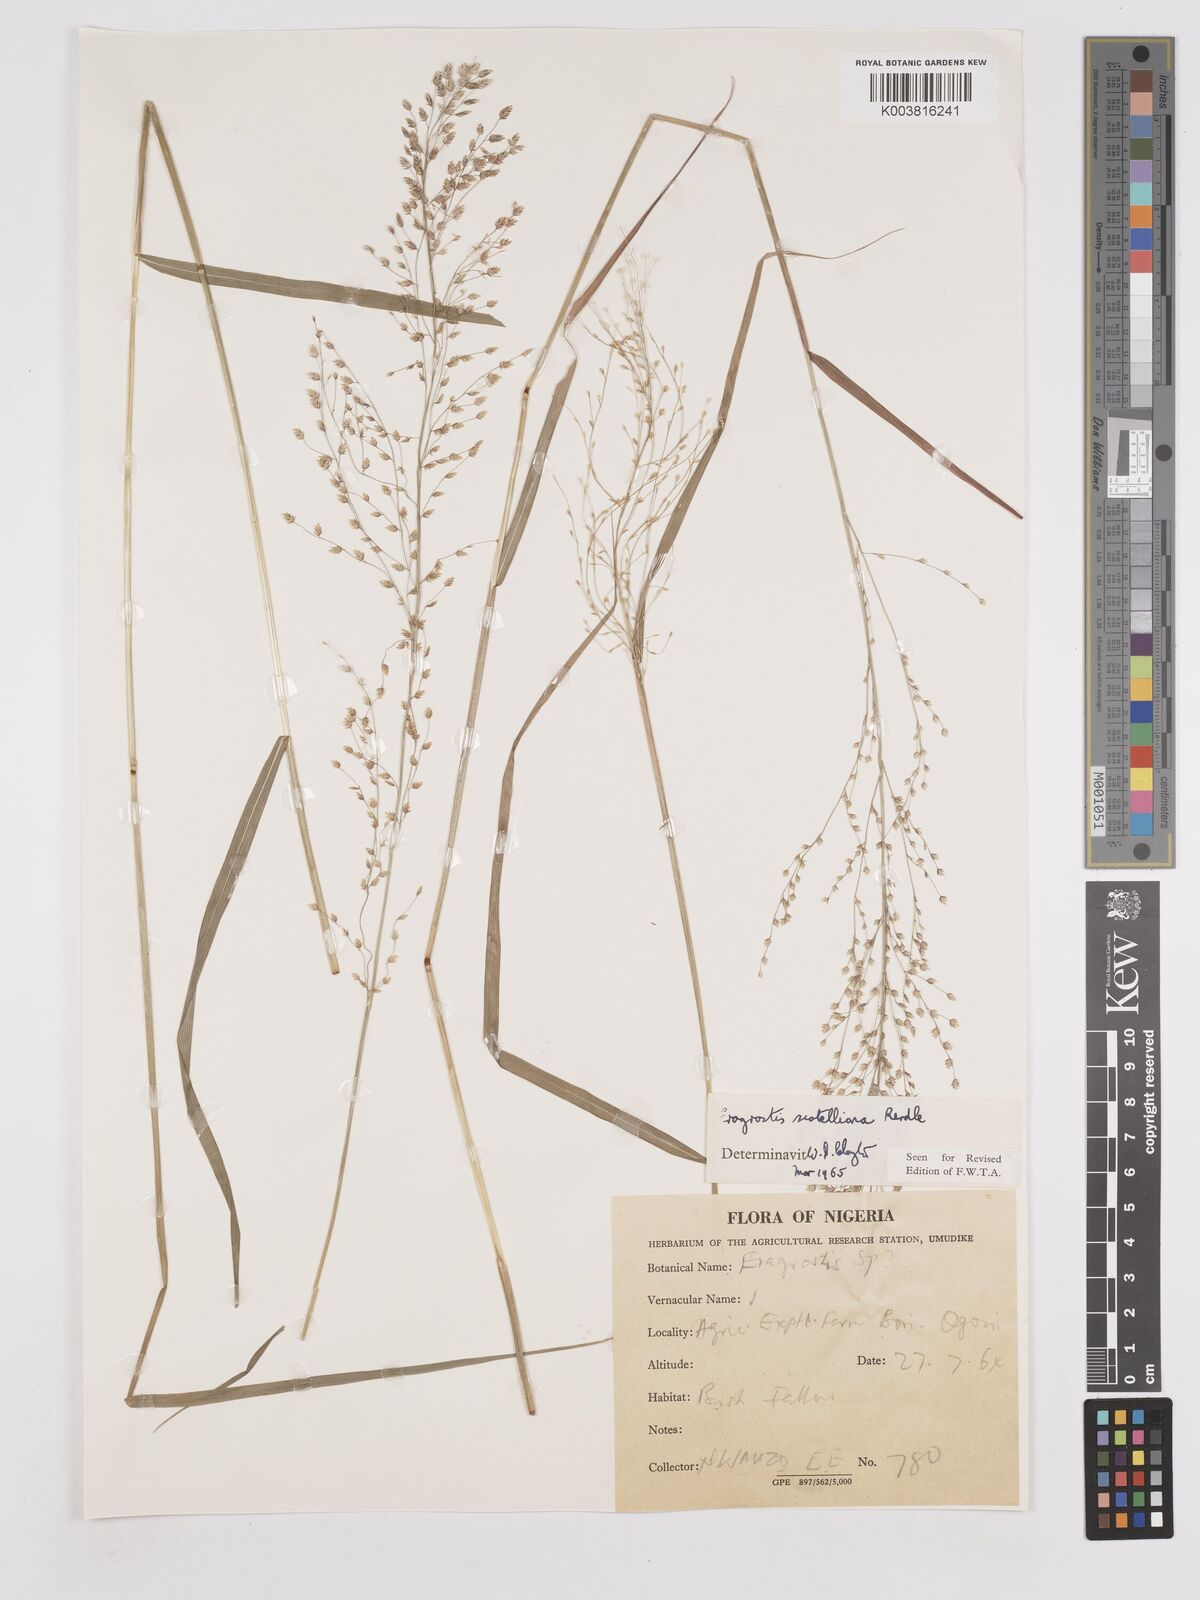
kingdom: Plantae
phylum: Tracheophyta
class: Liliopsida
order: Poales
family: Poaceae
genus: Eragrostis
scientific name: Eragrostis scotelliana
